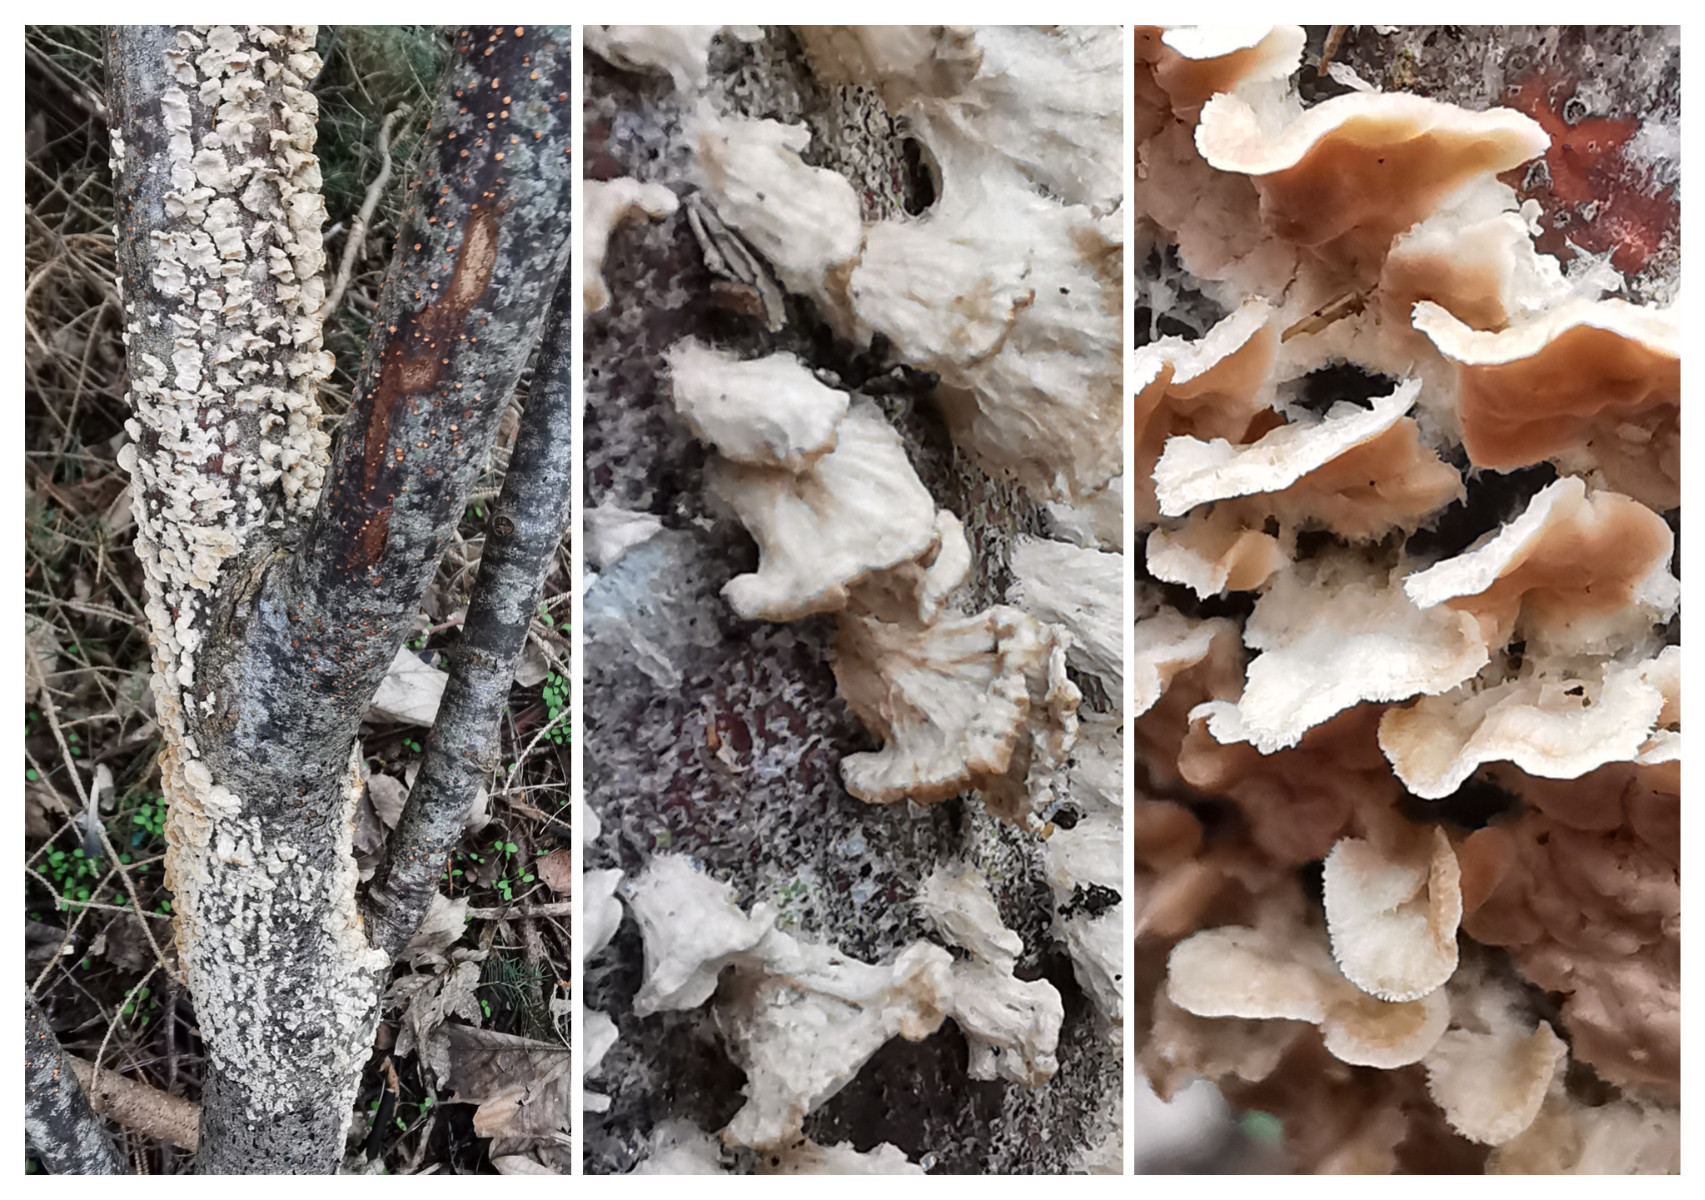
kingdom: Fungi
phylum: Basidiomycota
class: Agaricomycetes
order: Corticiales
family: Corticiaceae
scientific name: Corticiaceae
